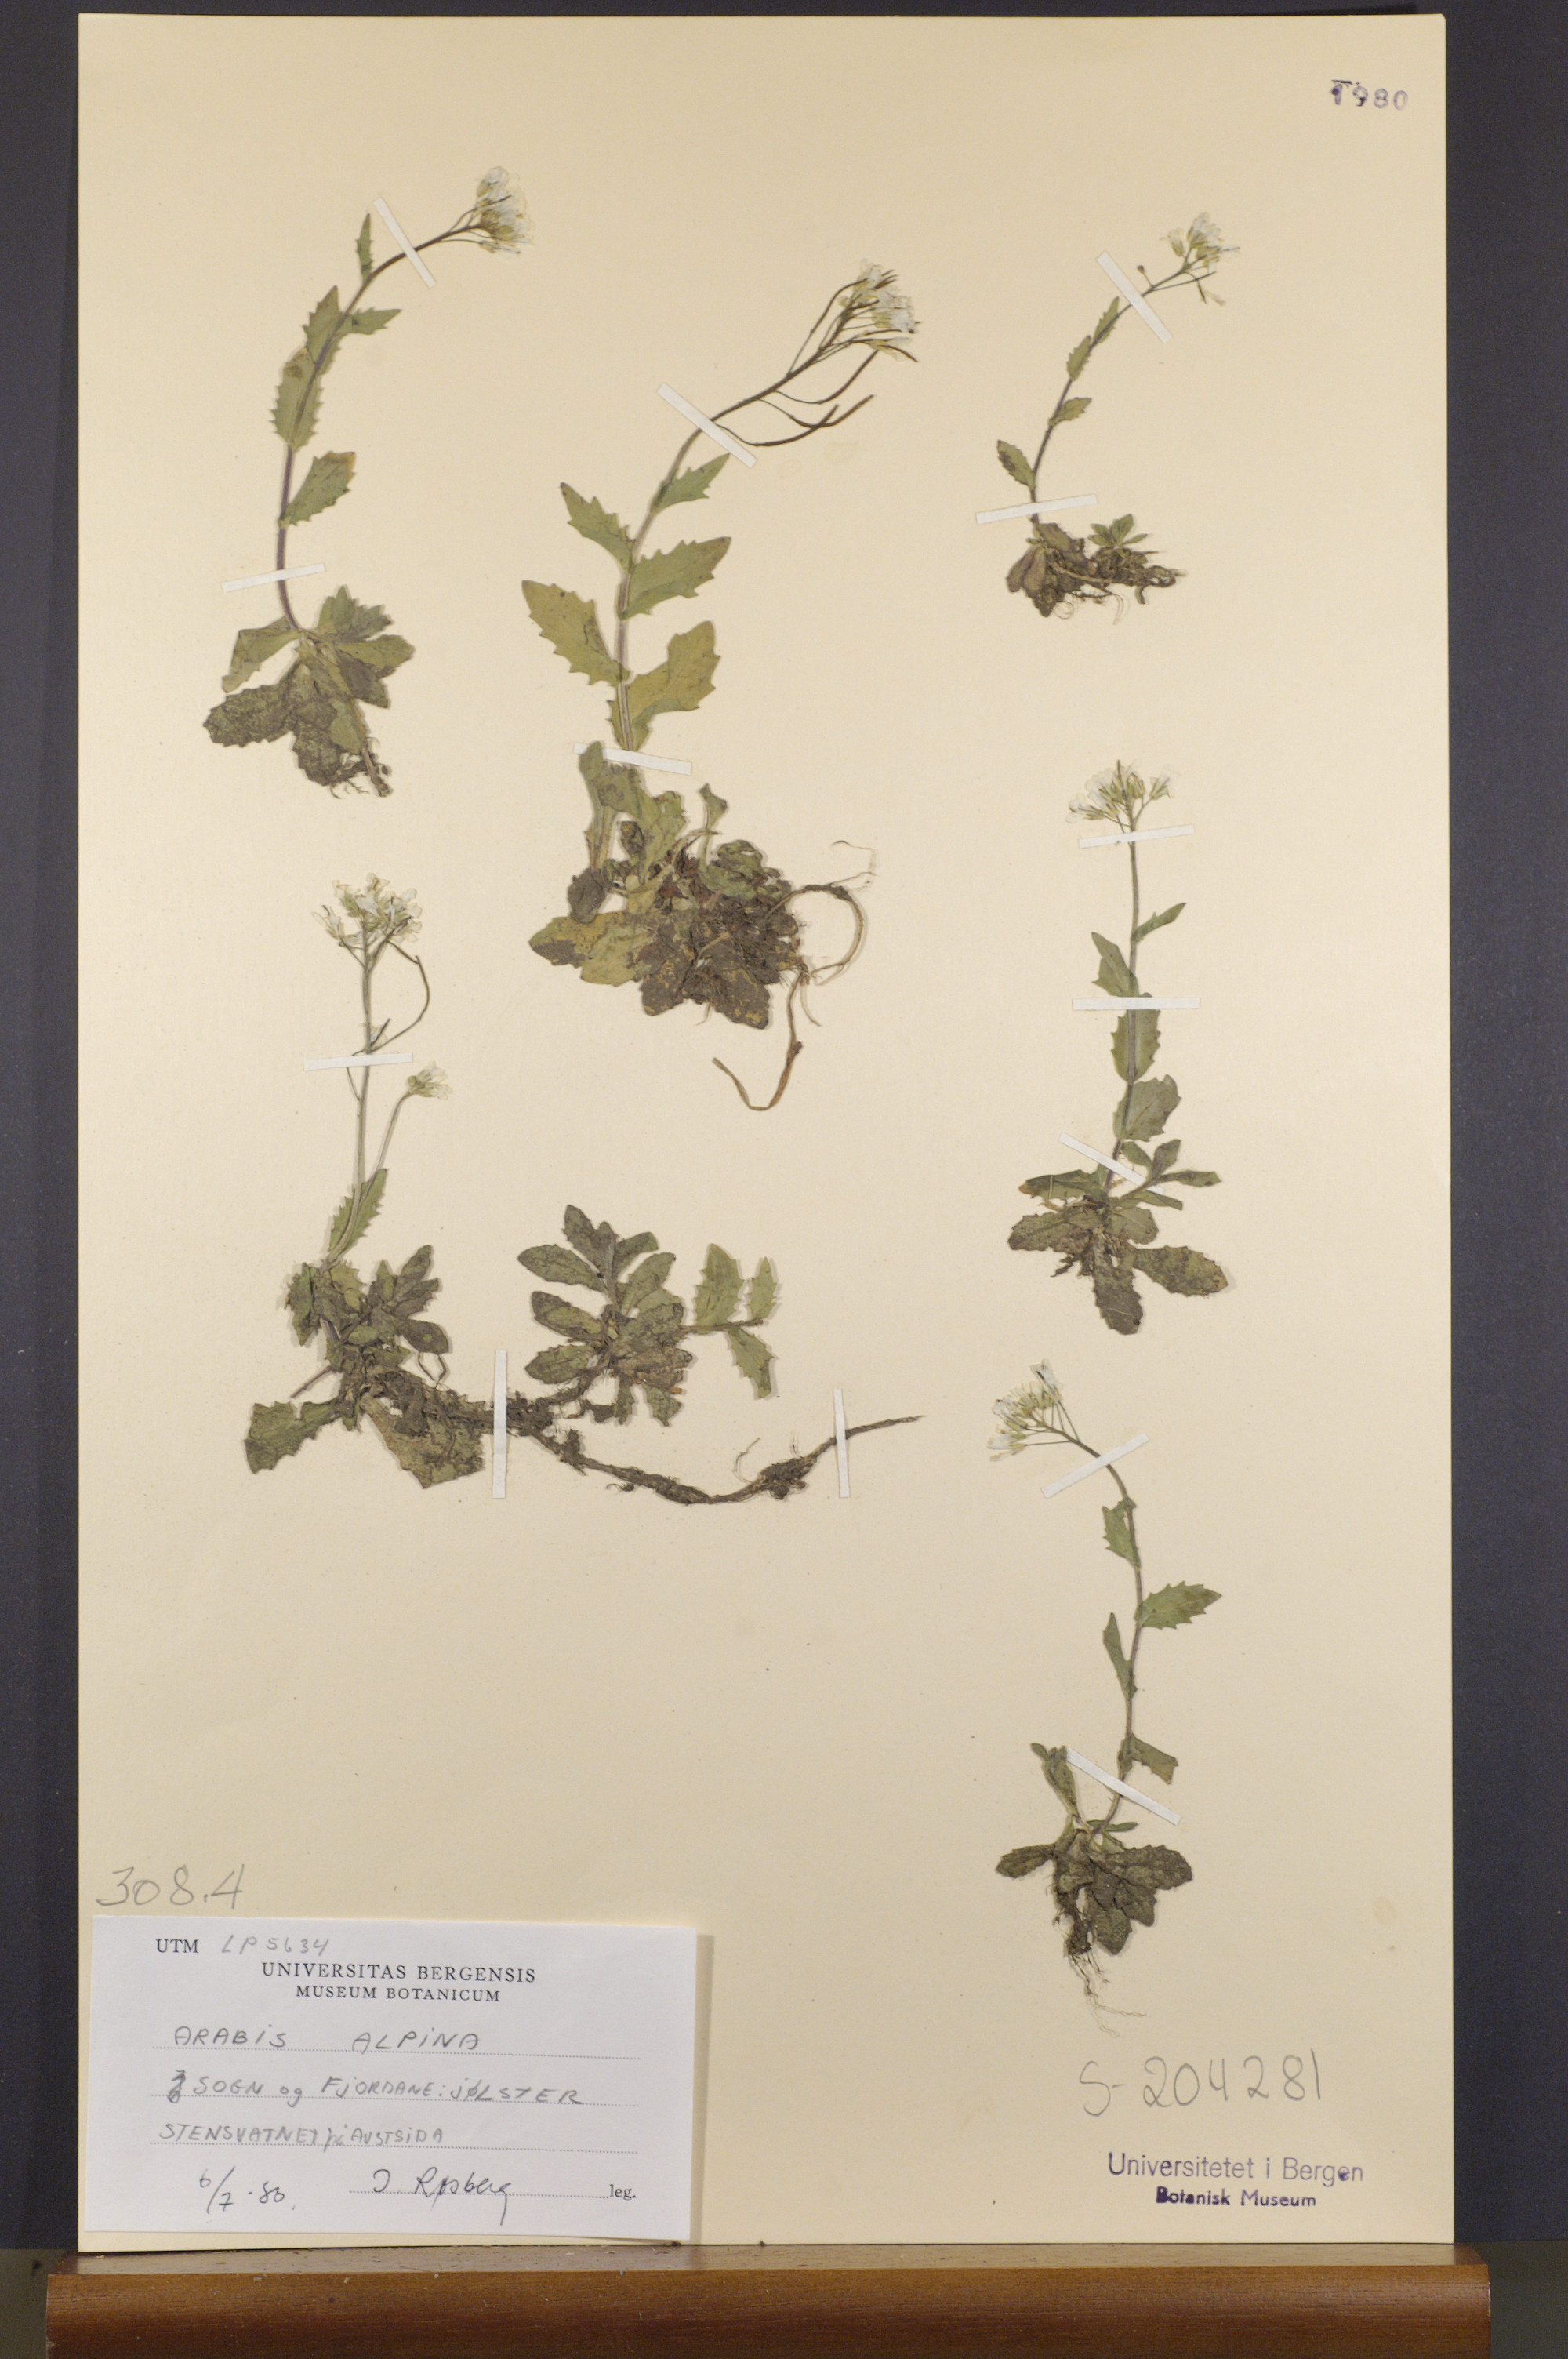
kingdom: Plantae
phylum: Tracheophyta
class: Magnoliopsida
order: Brassicales
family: Brassicaceae
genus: Arabis
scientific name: Arabis alpina
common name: Alpine rock-cress
